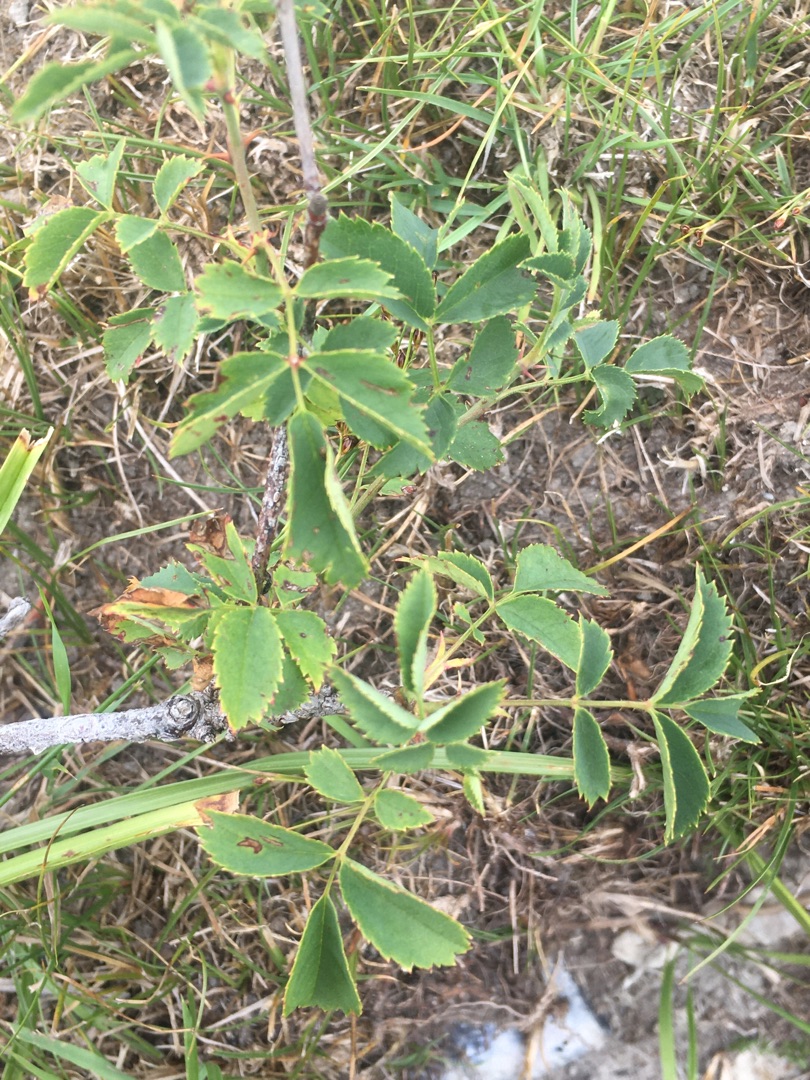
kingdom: Plantae
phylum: Tracheophyta
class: Magnoliopsida
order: Rosales
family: Rosaceae
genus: Rosa
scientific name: Rosa
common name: Roseslægten
